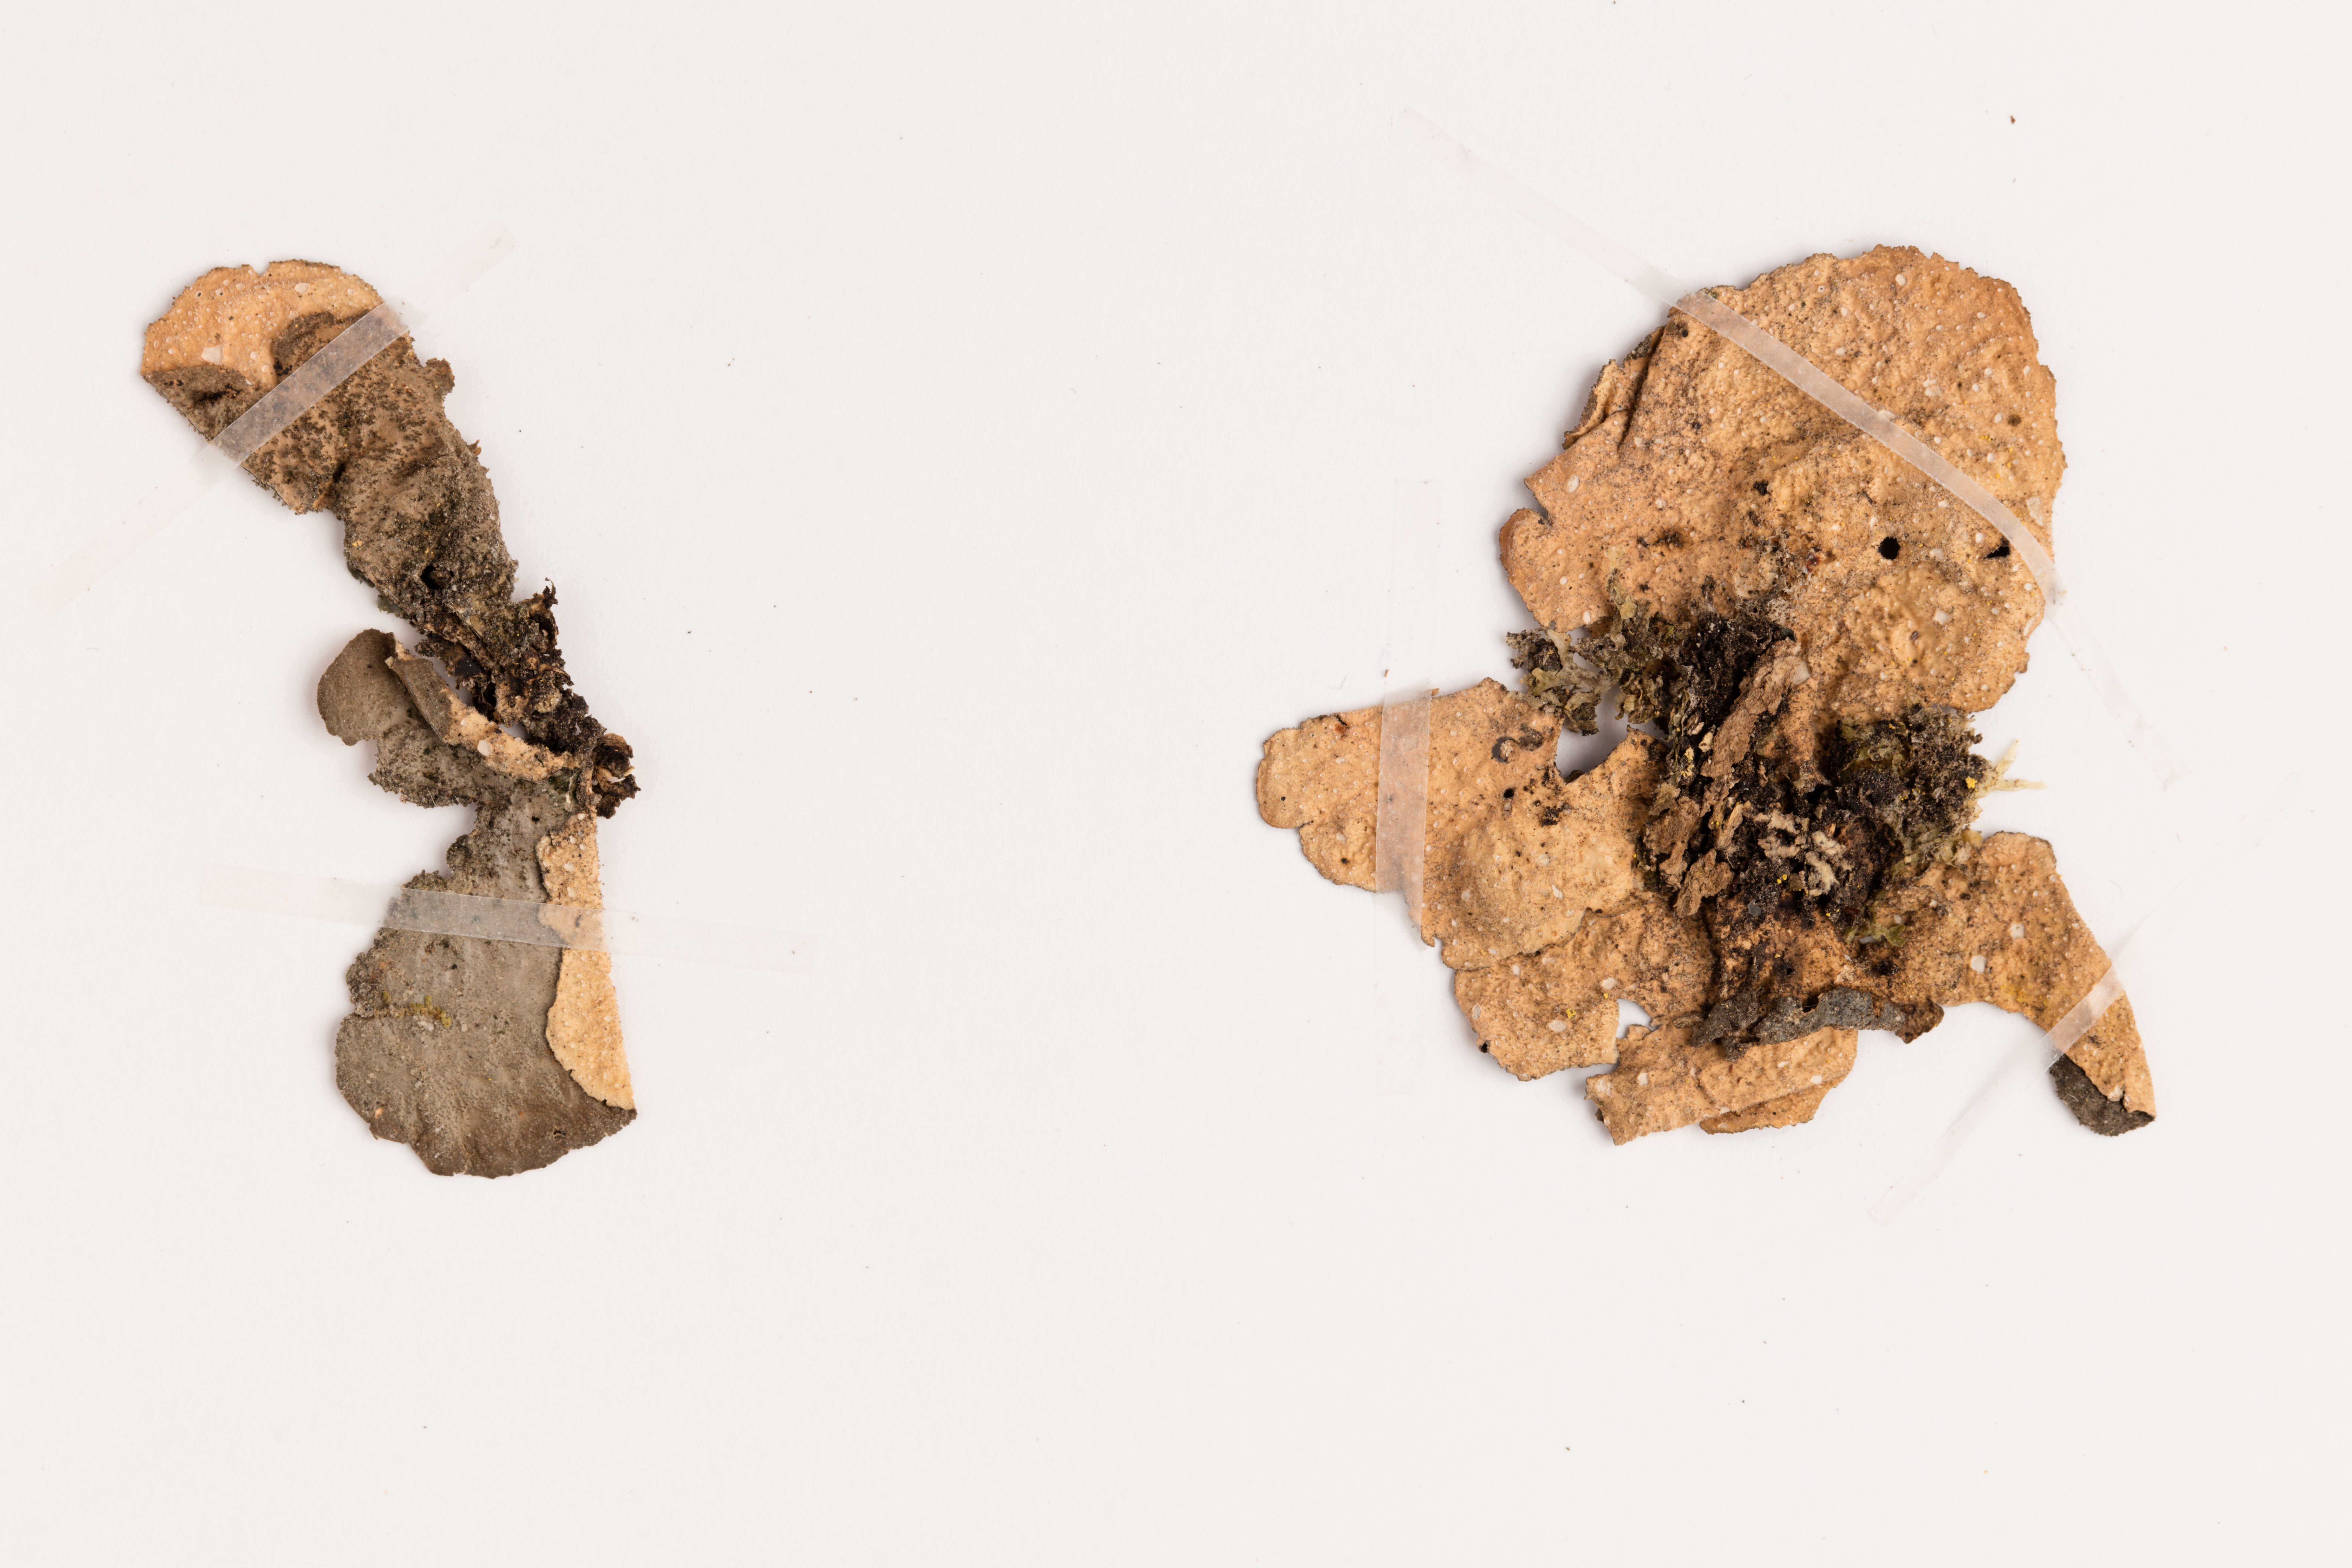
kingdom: Fungi
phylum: Ascomycota
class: Lecanoromycetes
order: Peltigerales
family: Lobariaceae
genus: Sticta
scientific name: Sticta latifrons
